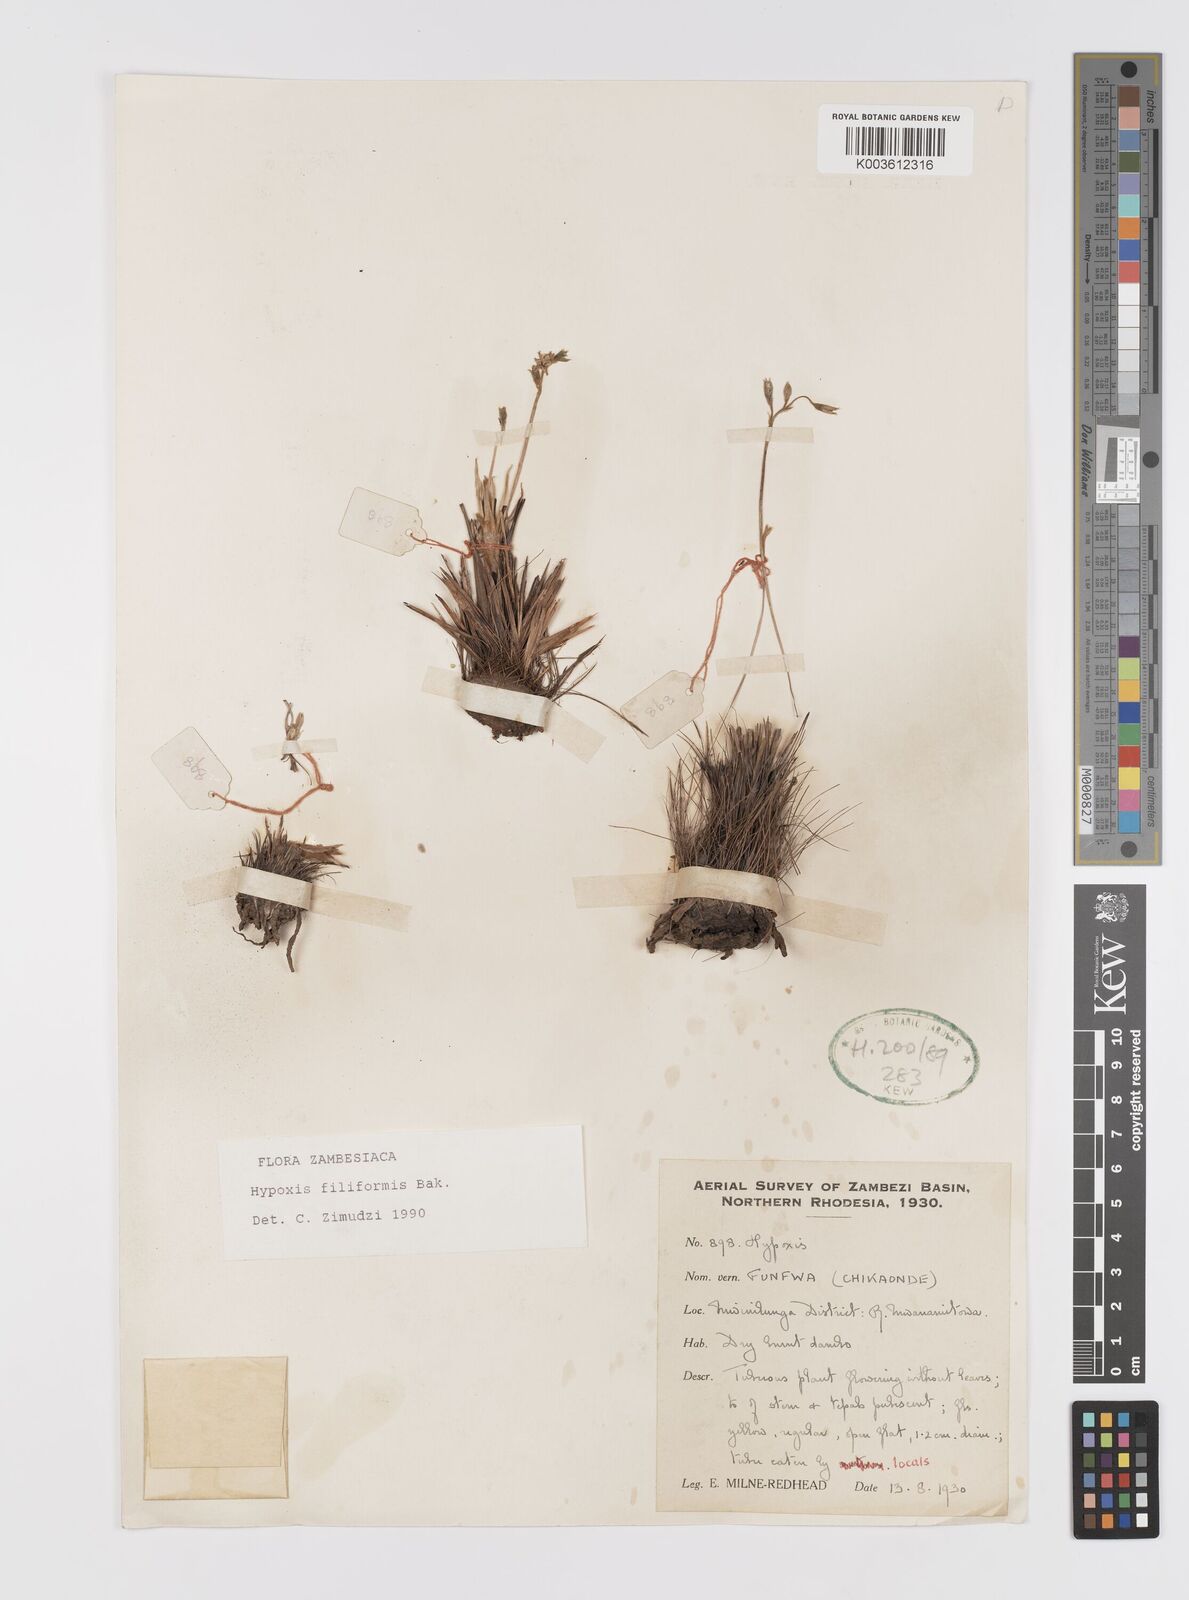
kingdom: Plantae
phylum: Tracheophyta
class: Liliopsida
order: Asparagales
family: Hypoxidaceae
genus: Hypoxis
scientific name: Hypoxis filiformis
